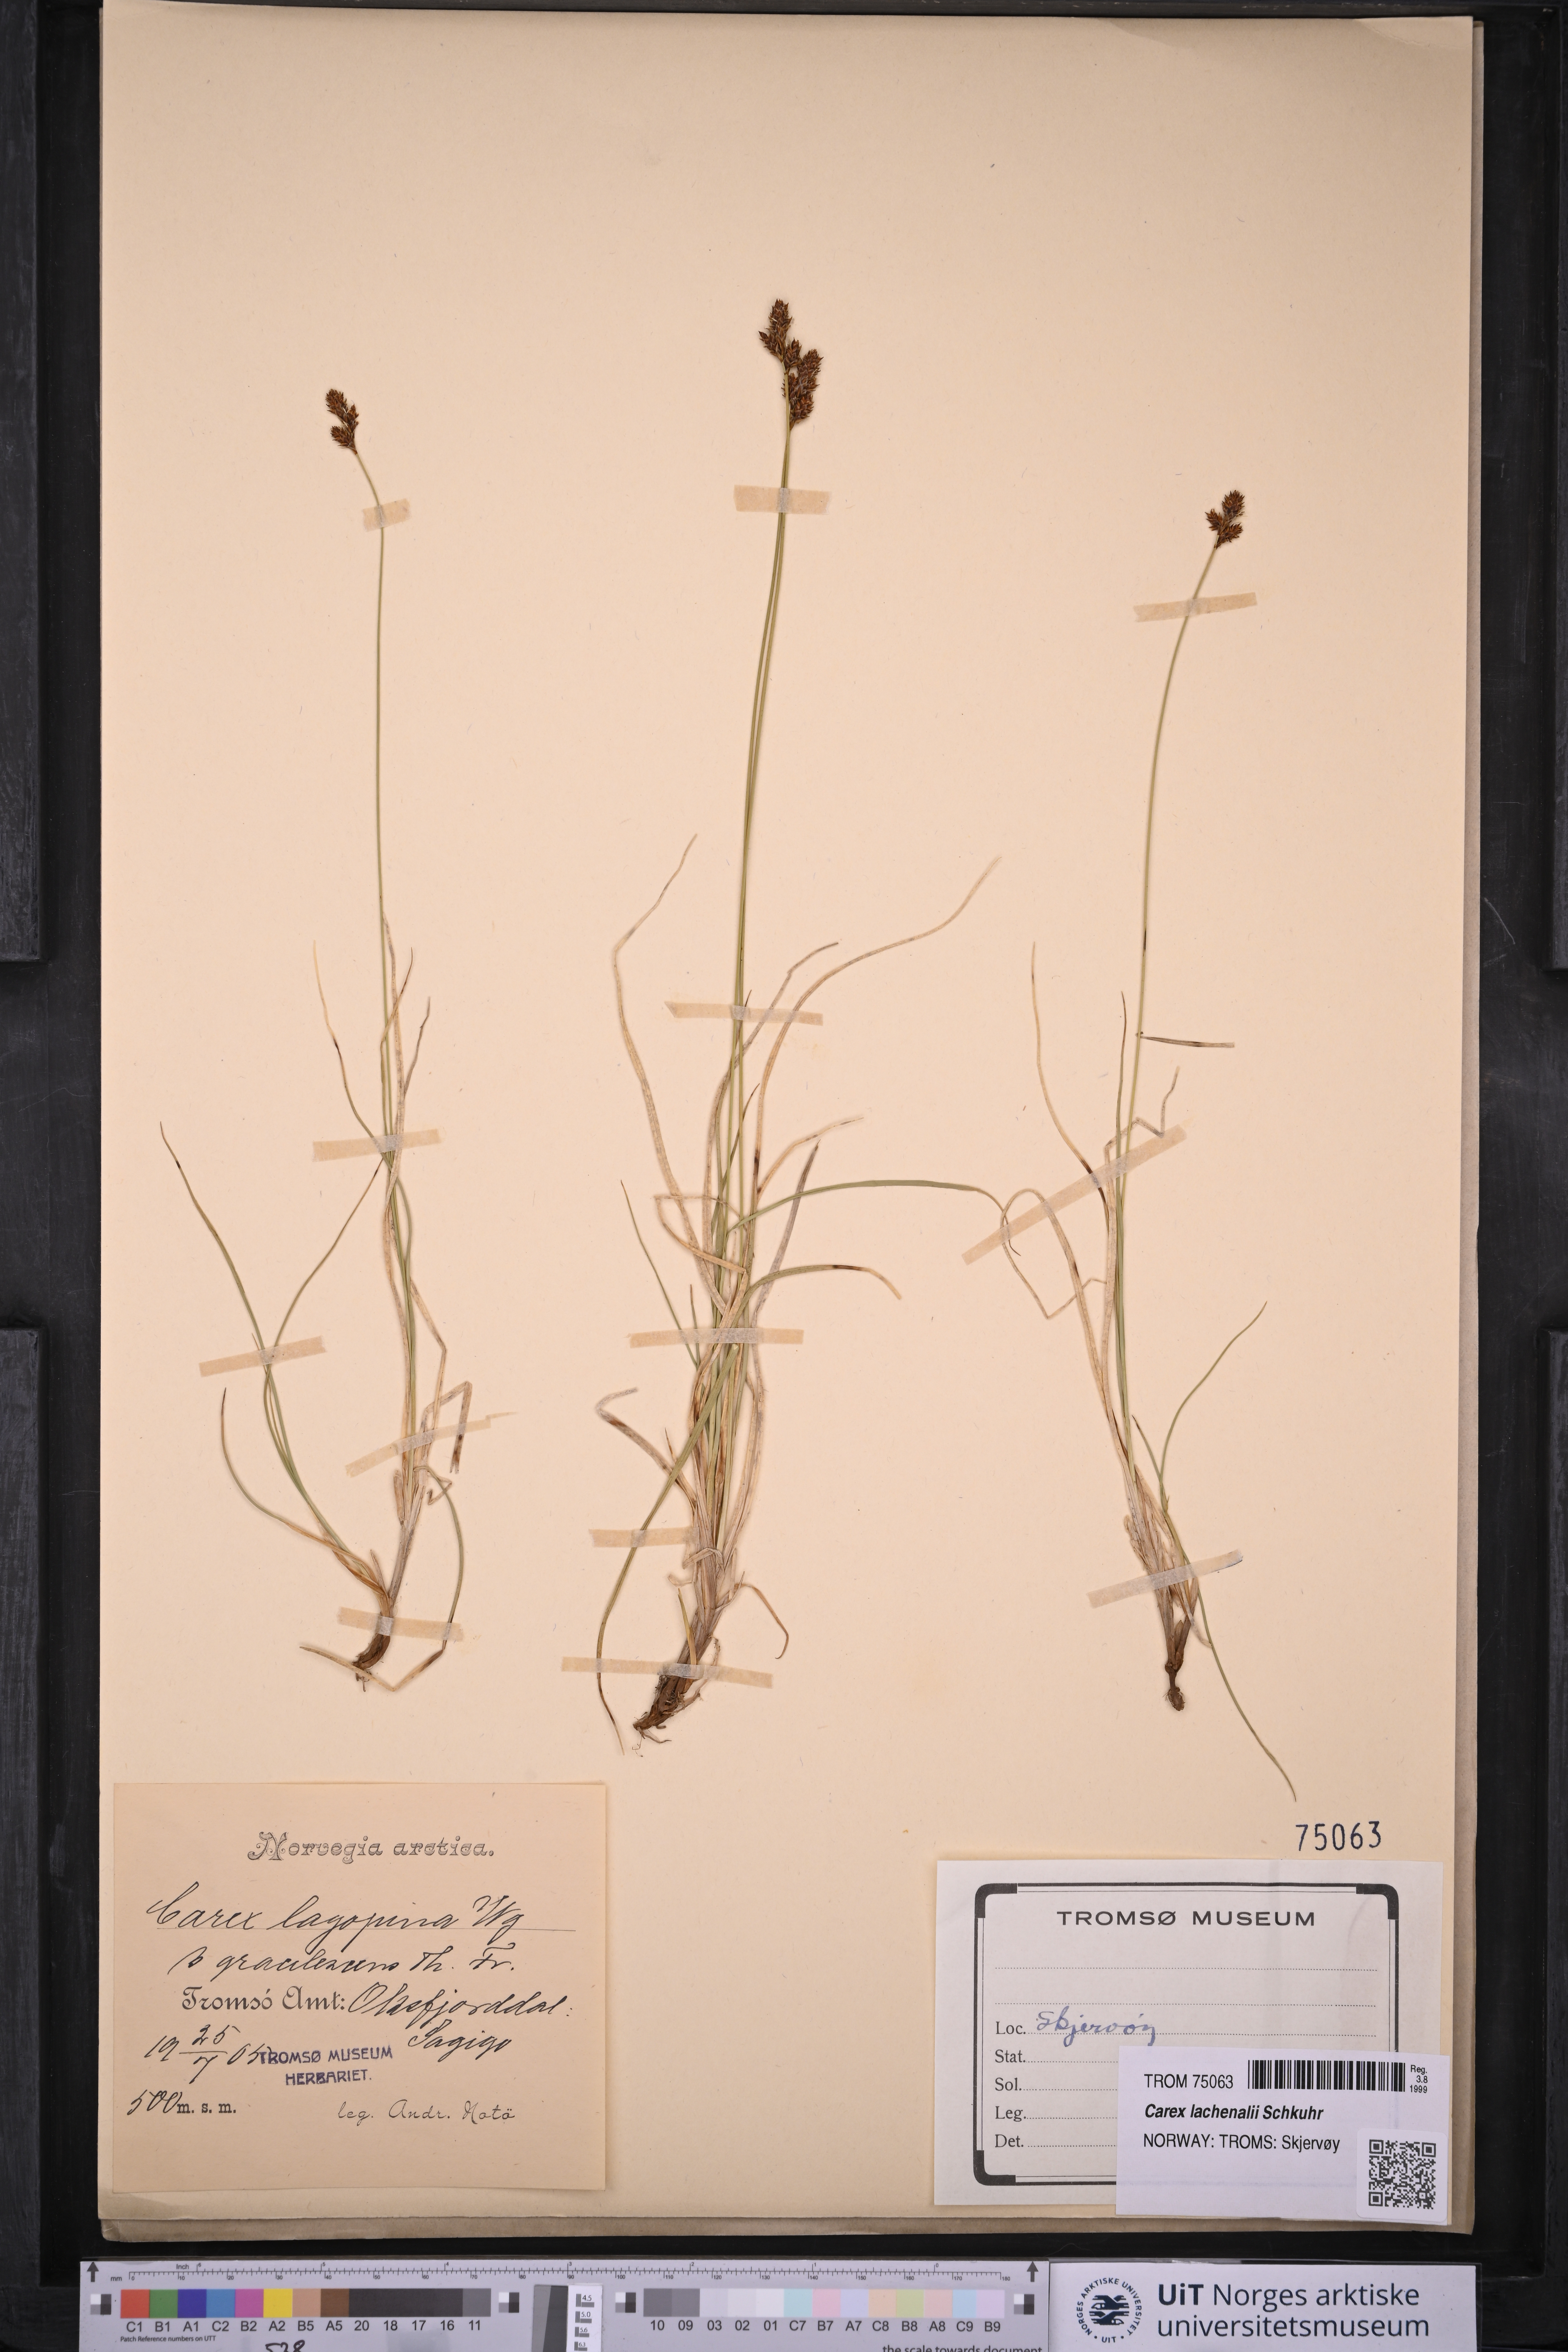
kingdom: Plantae
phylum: Tracheophyta
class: Liliopsida
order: Poales
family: Cyperaceae
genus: Carex
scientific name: Carex lachenalii
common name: Hare's-foot sedge
